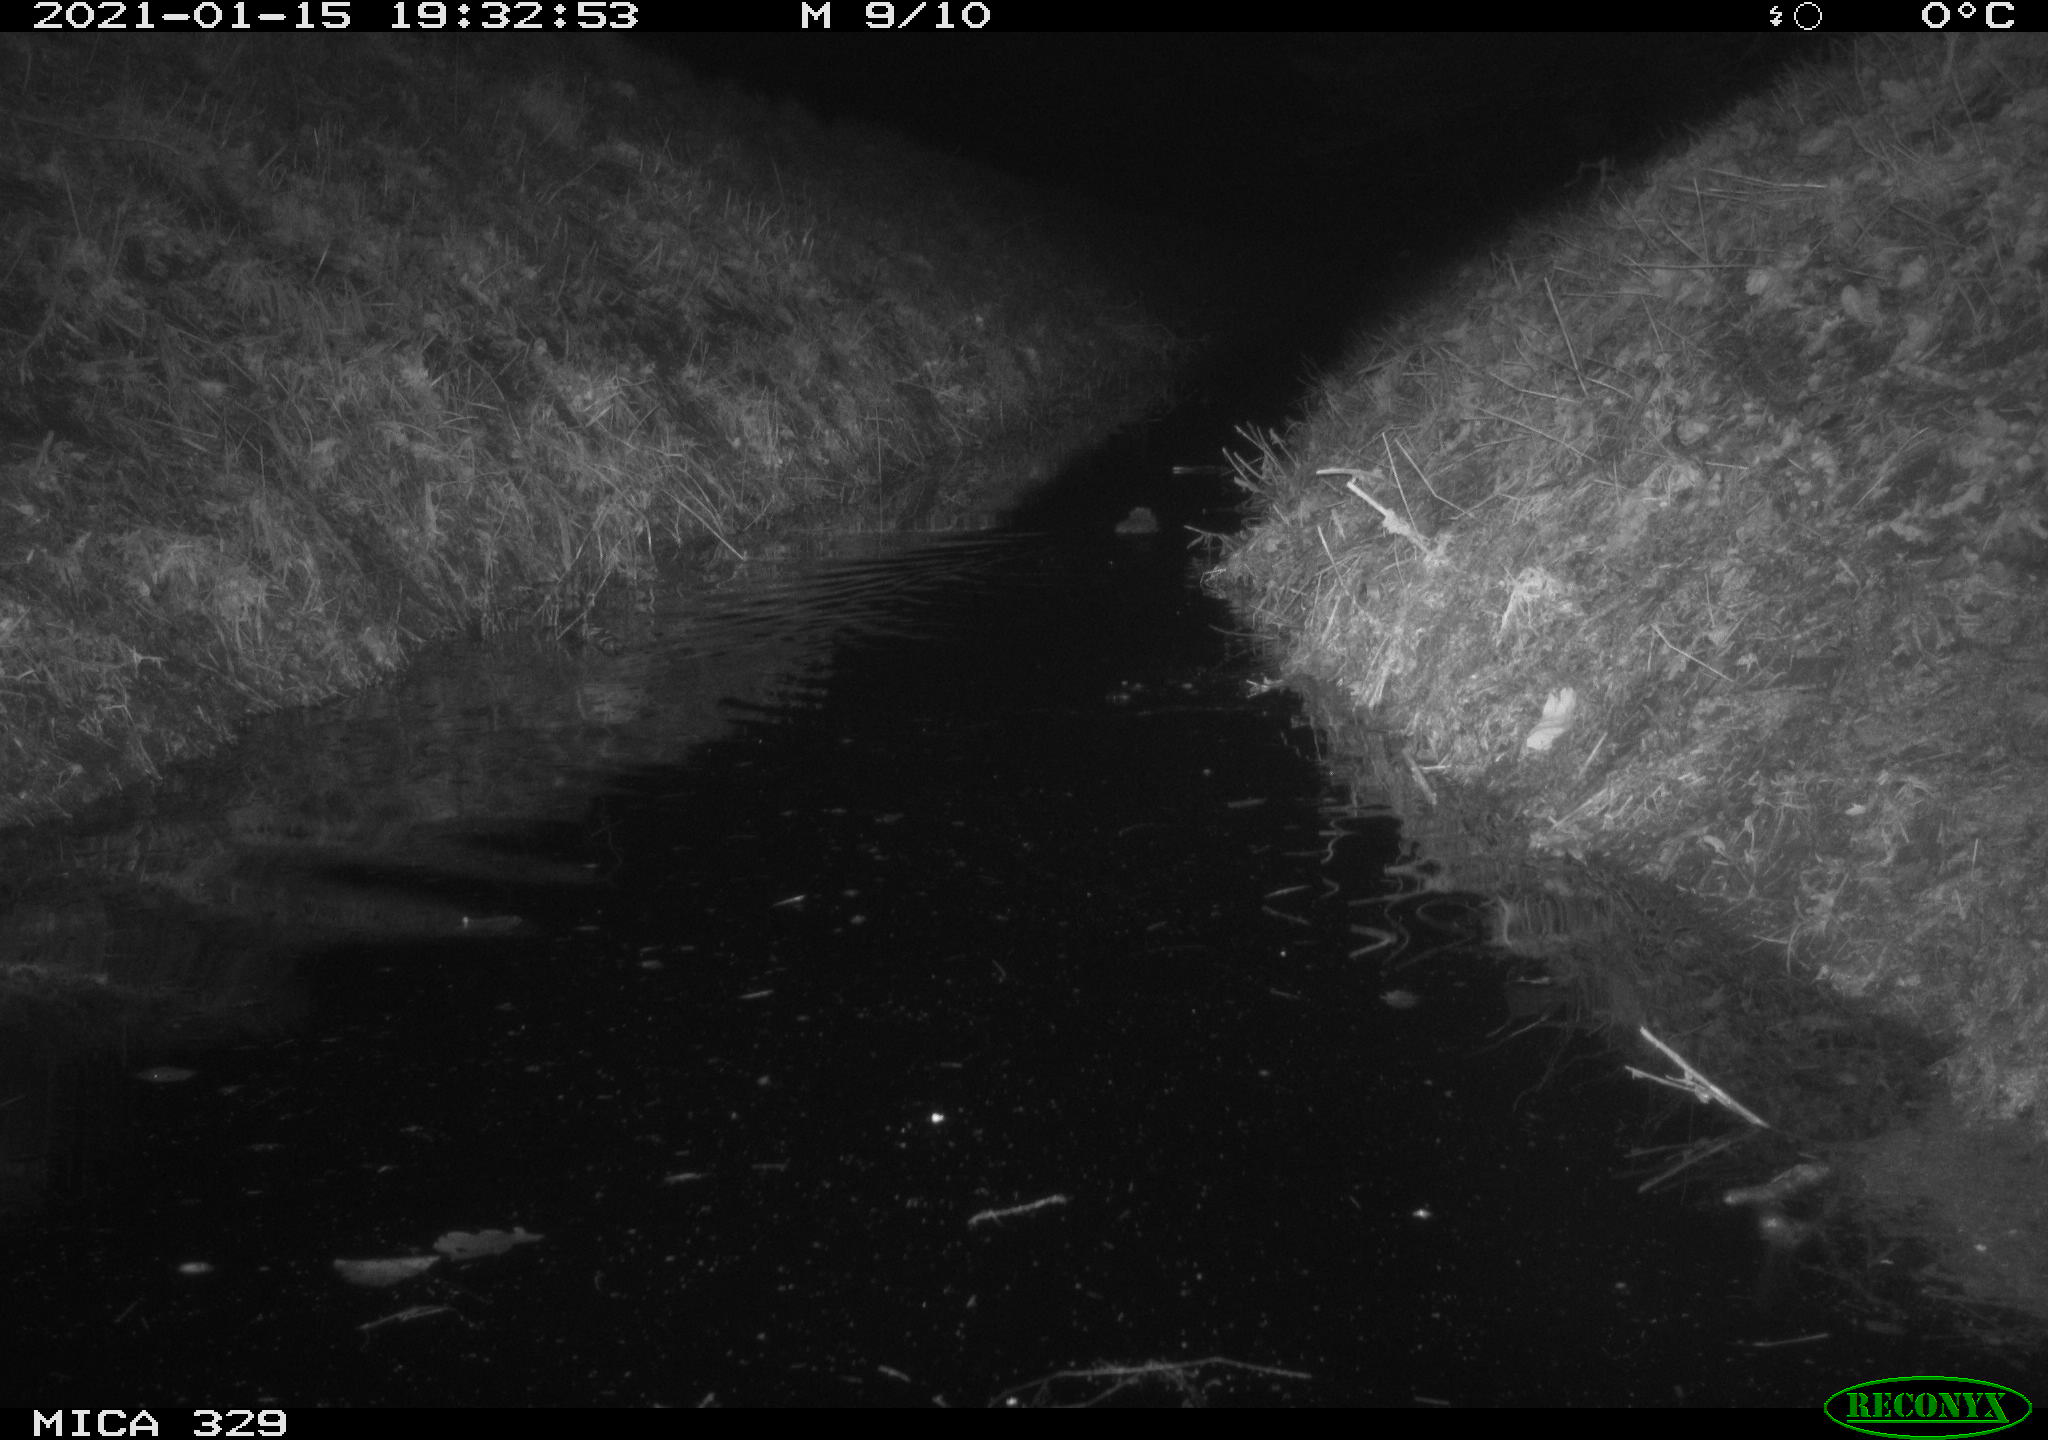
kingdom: Animalia
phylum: Chordata
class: Mammalia
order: Rodentia
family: Myocastoridae
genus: Myocastor
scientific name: Myocastor coypus
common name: Coypu
